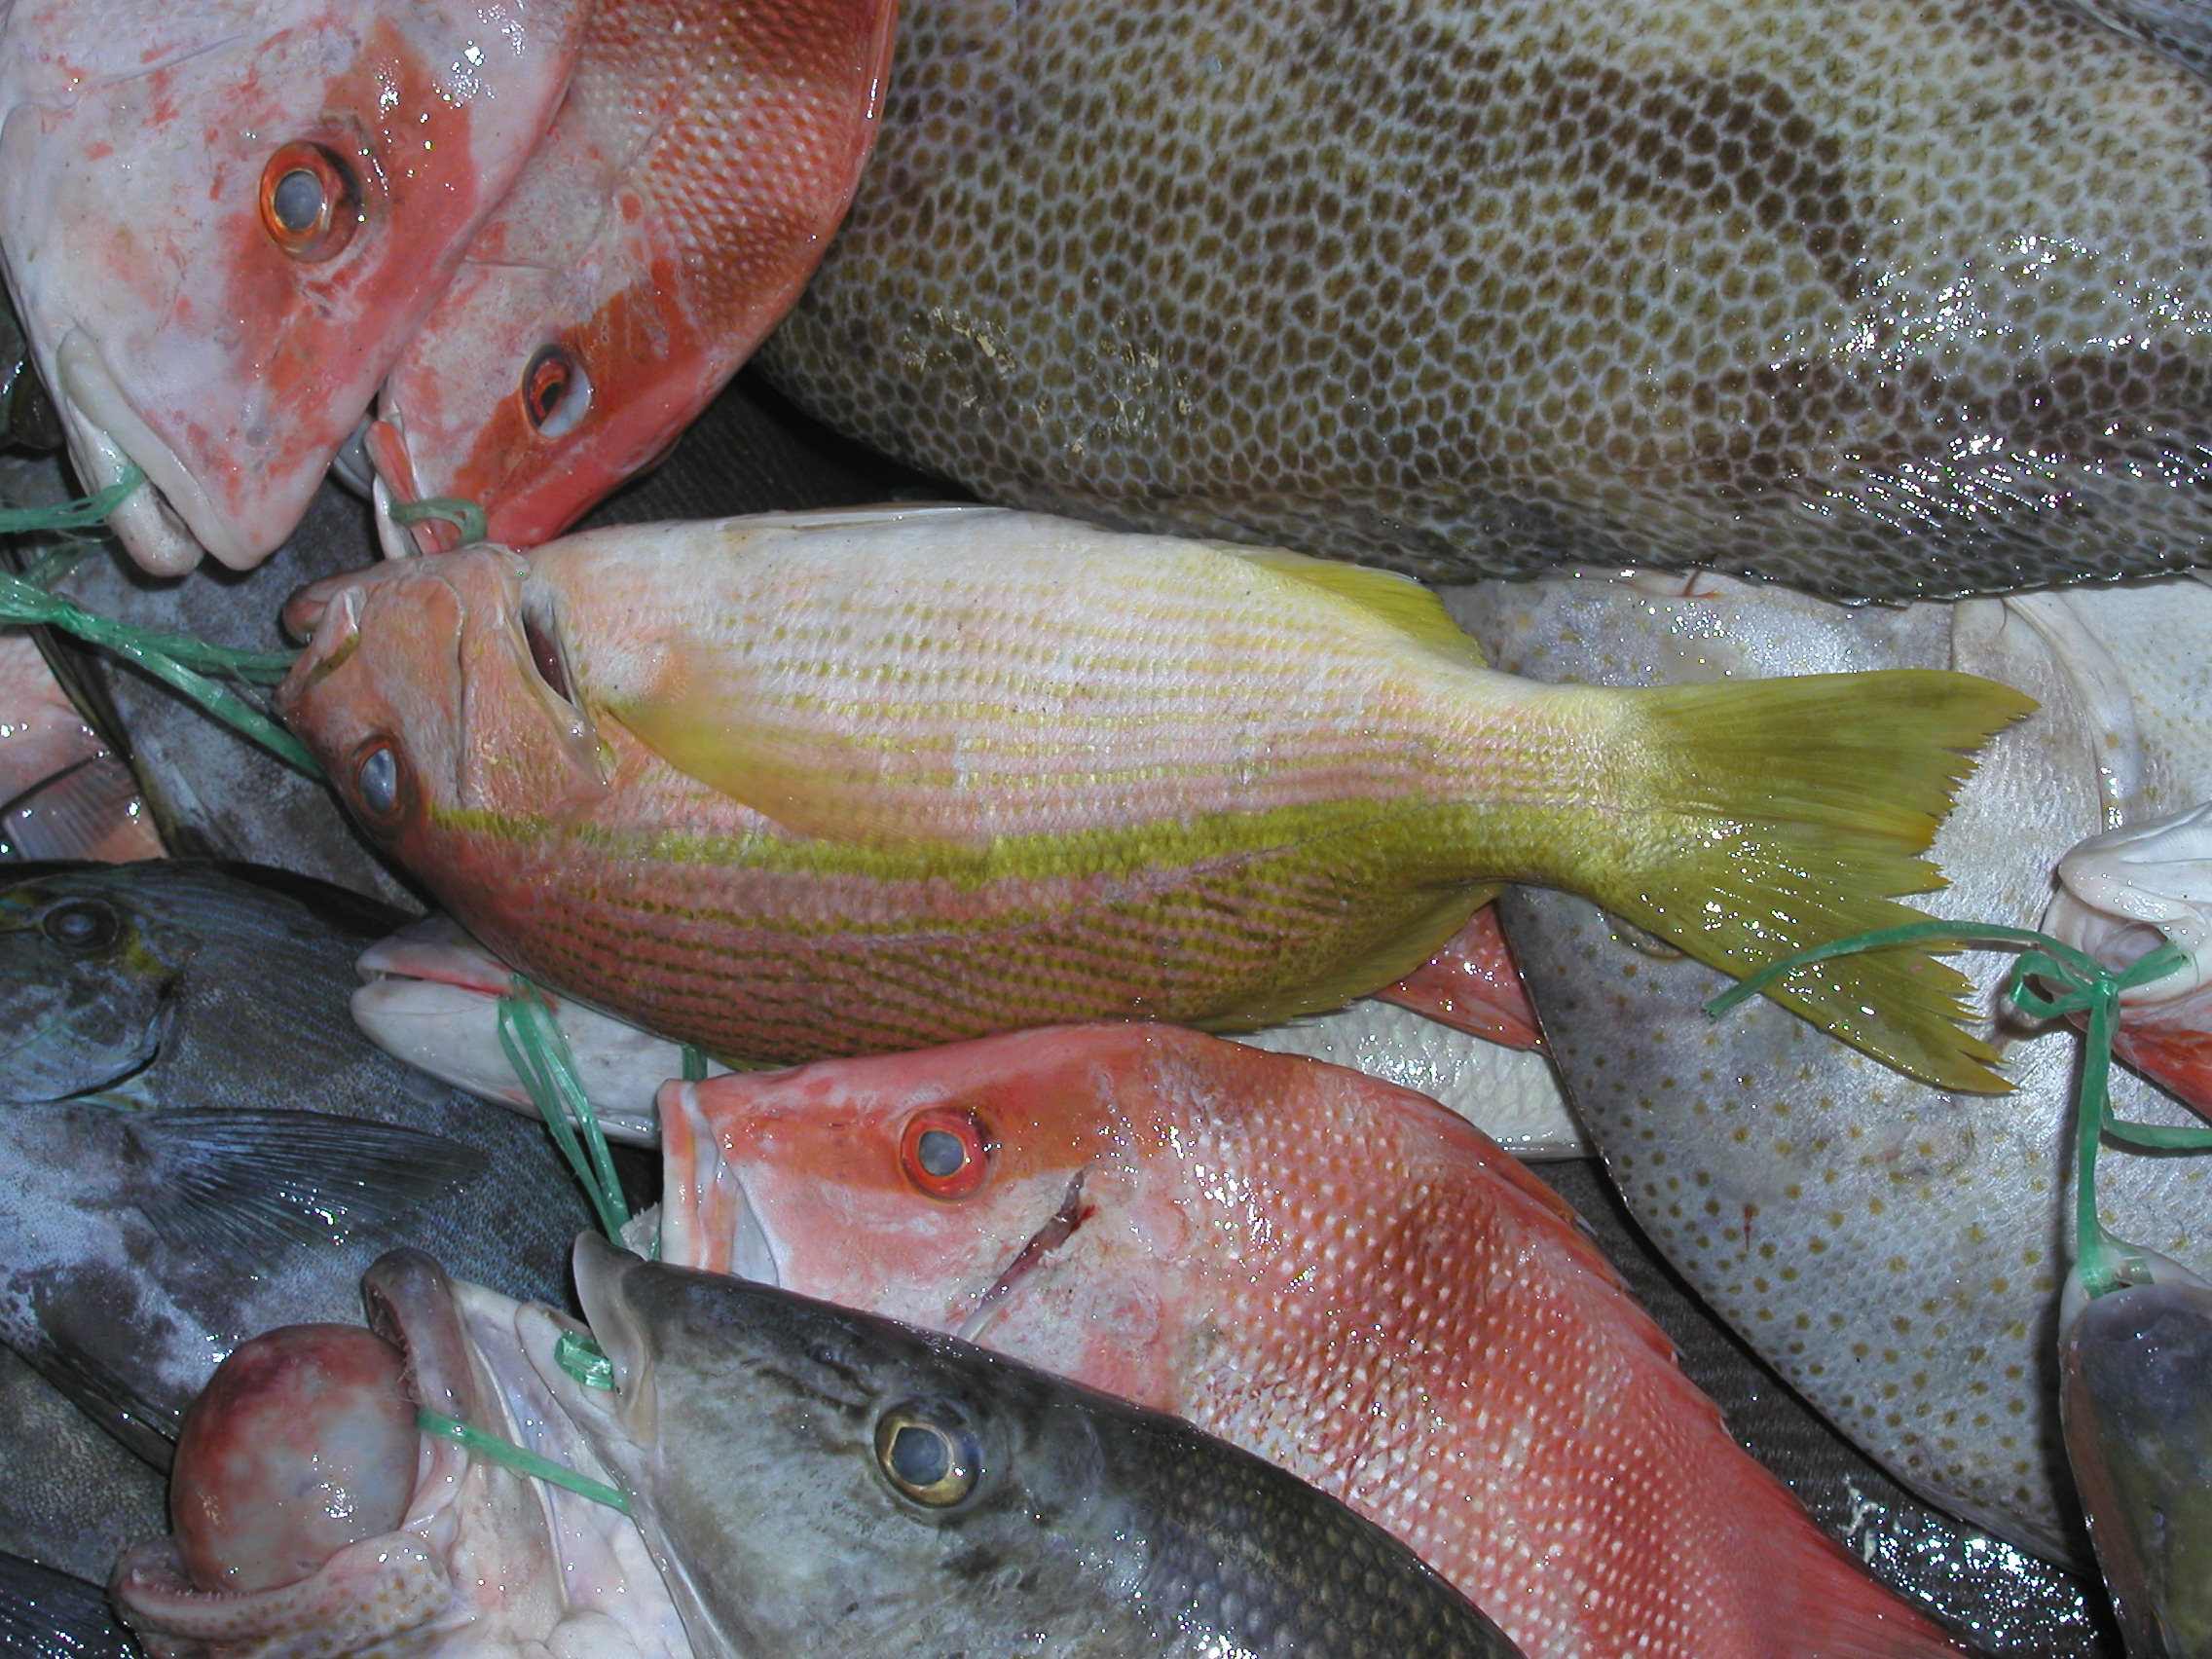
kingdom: Animalia
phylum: Chordata
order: Perciformes
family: Lutjanidae
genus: Lutjanus
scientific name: Lutjanus madras
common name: Indian snapper
